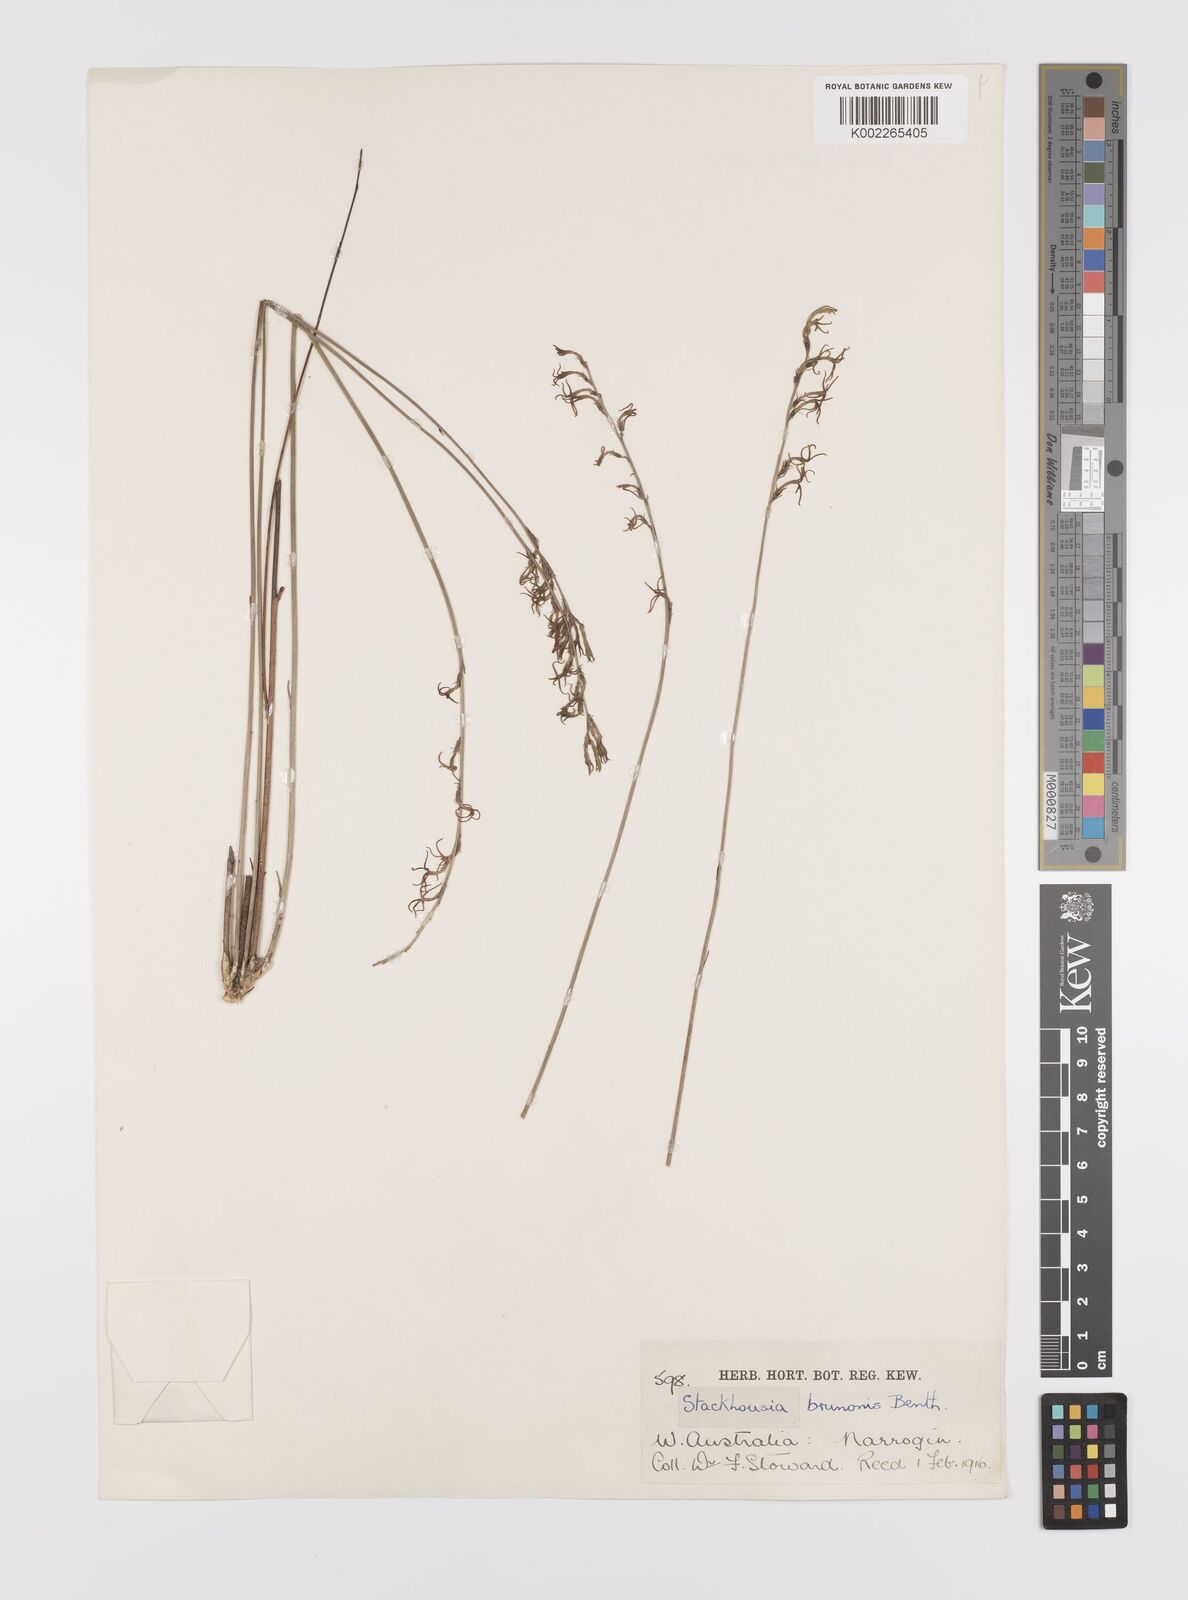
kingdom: Plantae
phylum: Tracheophyta
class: Magnoliopsida
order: Celastrales
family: Celastraceae
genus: Tripterococcus
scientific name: Tripterococcus brunonis
